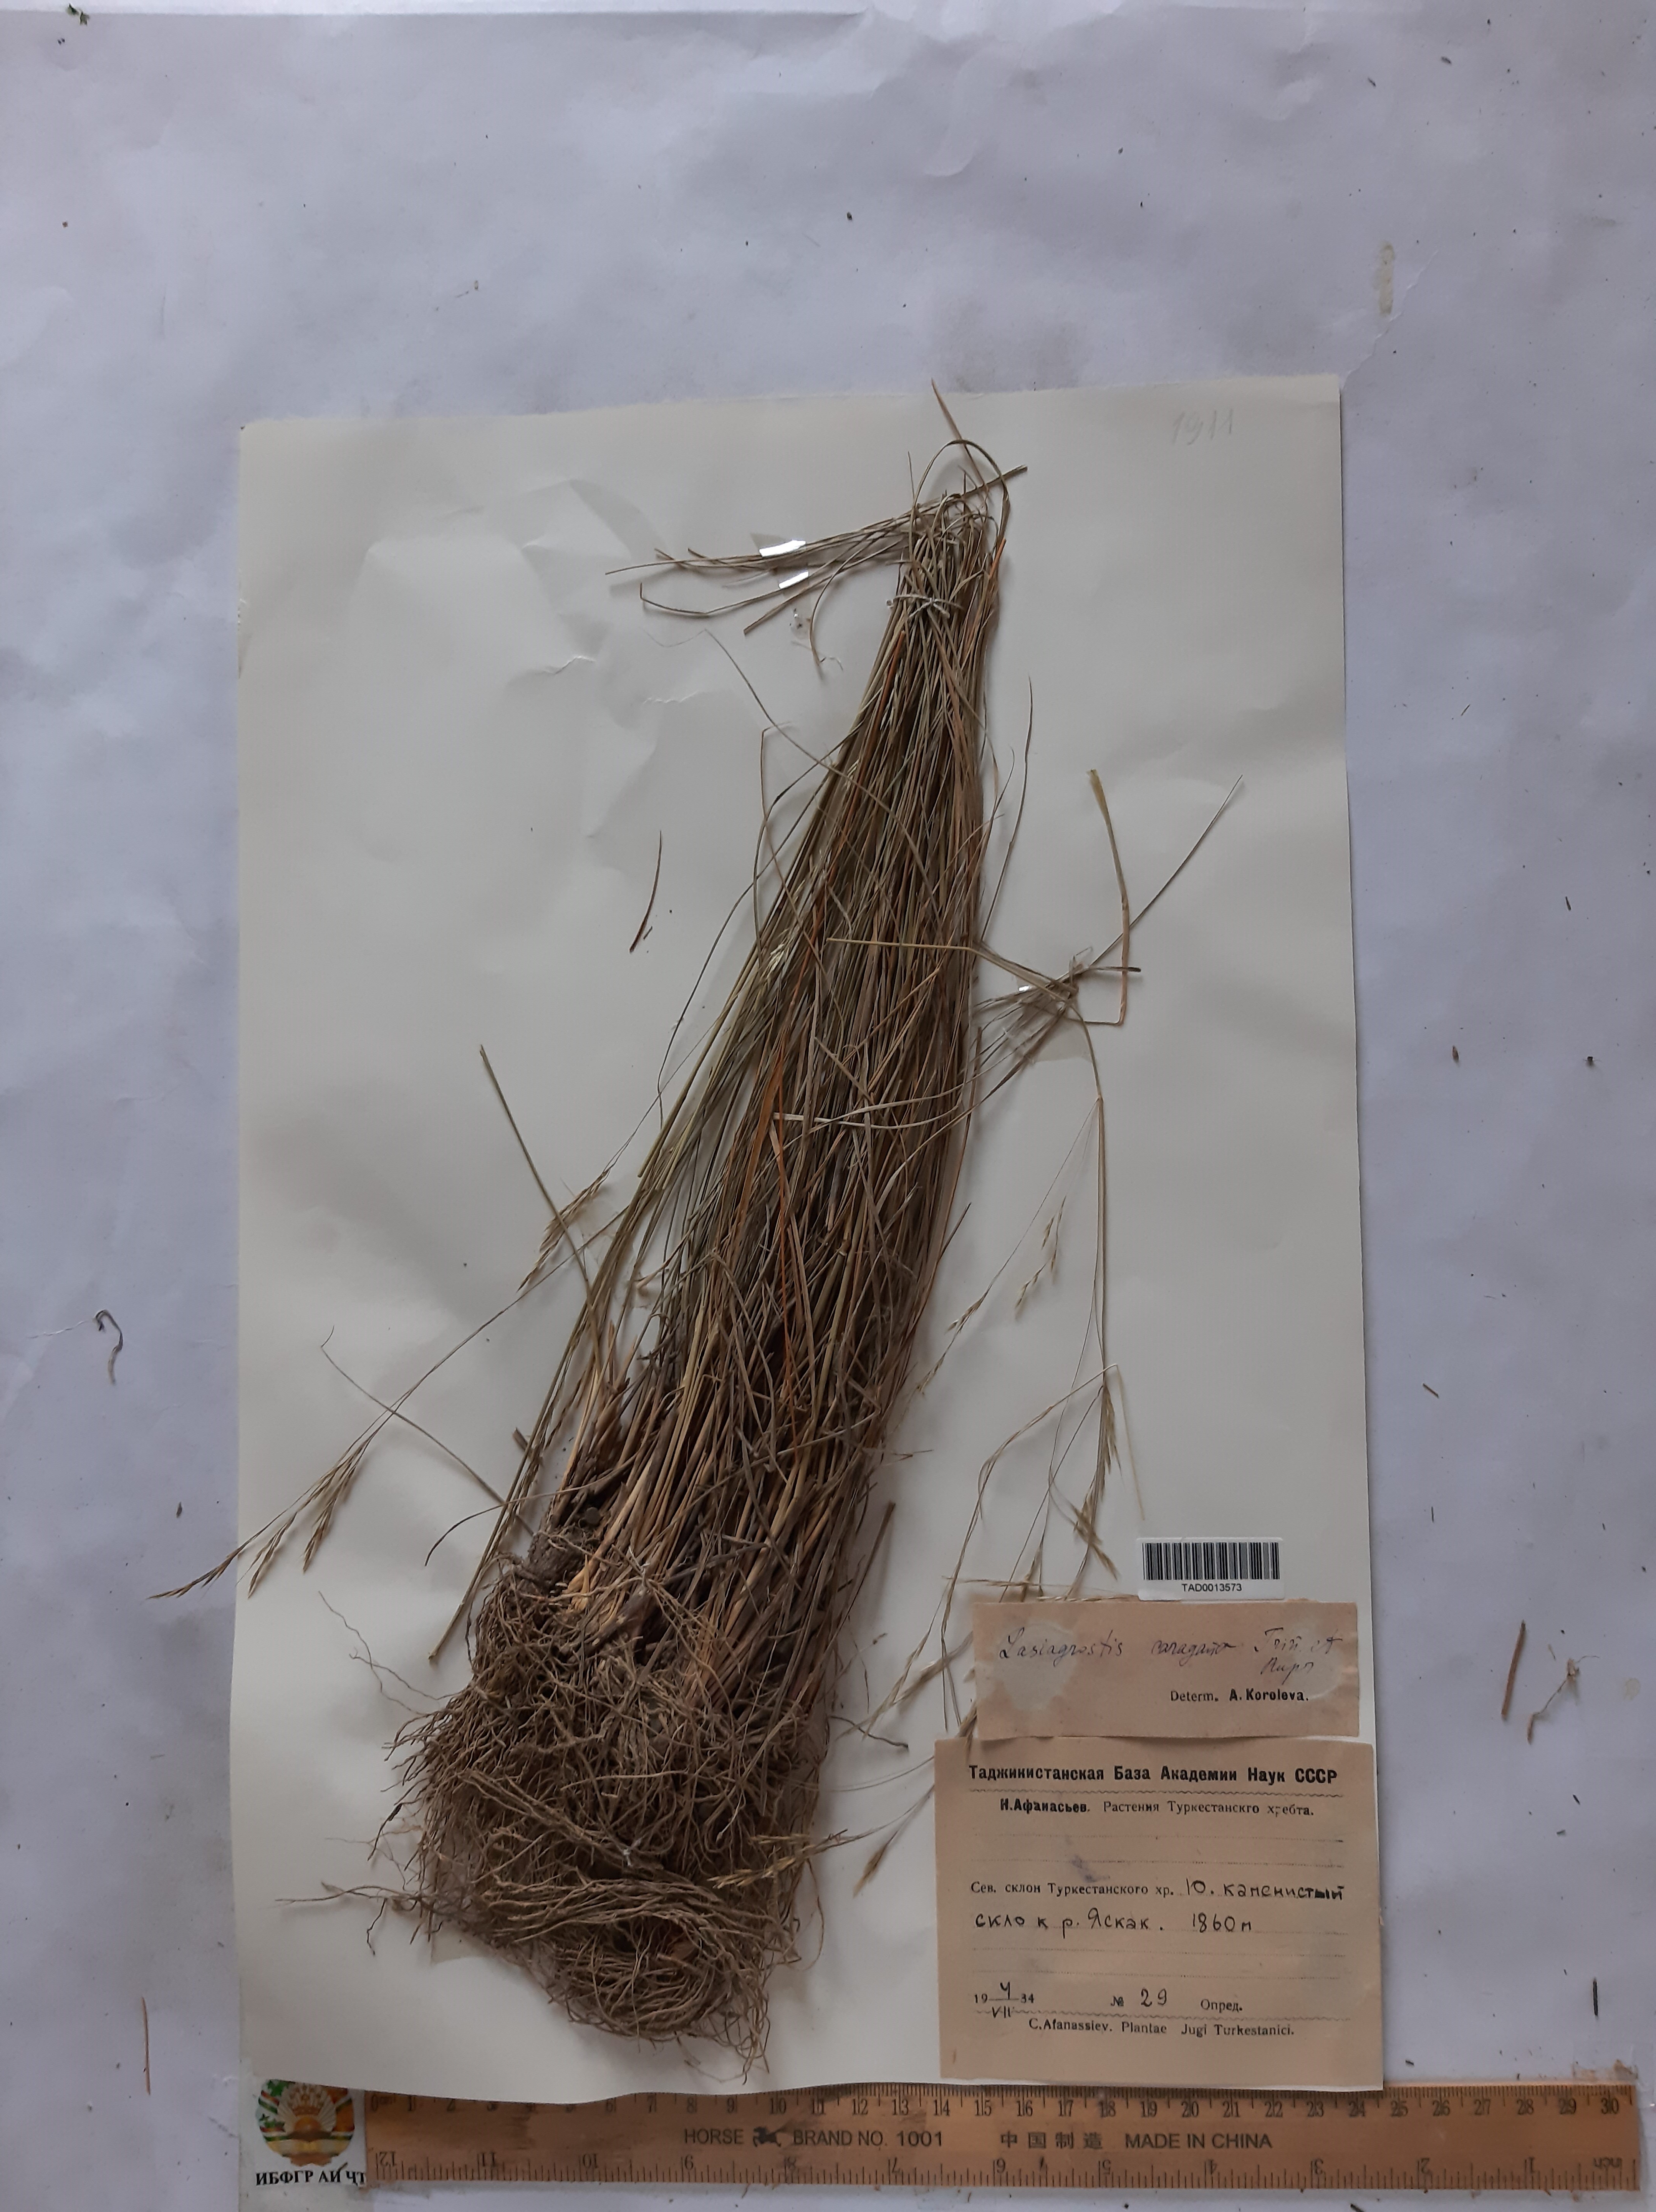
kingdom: Plantae
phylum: Tracheophyta
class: Liliopsida
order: Poales
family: Poaceae
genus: Stipa
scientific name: Stipa conferta
